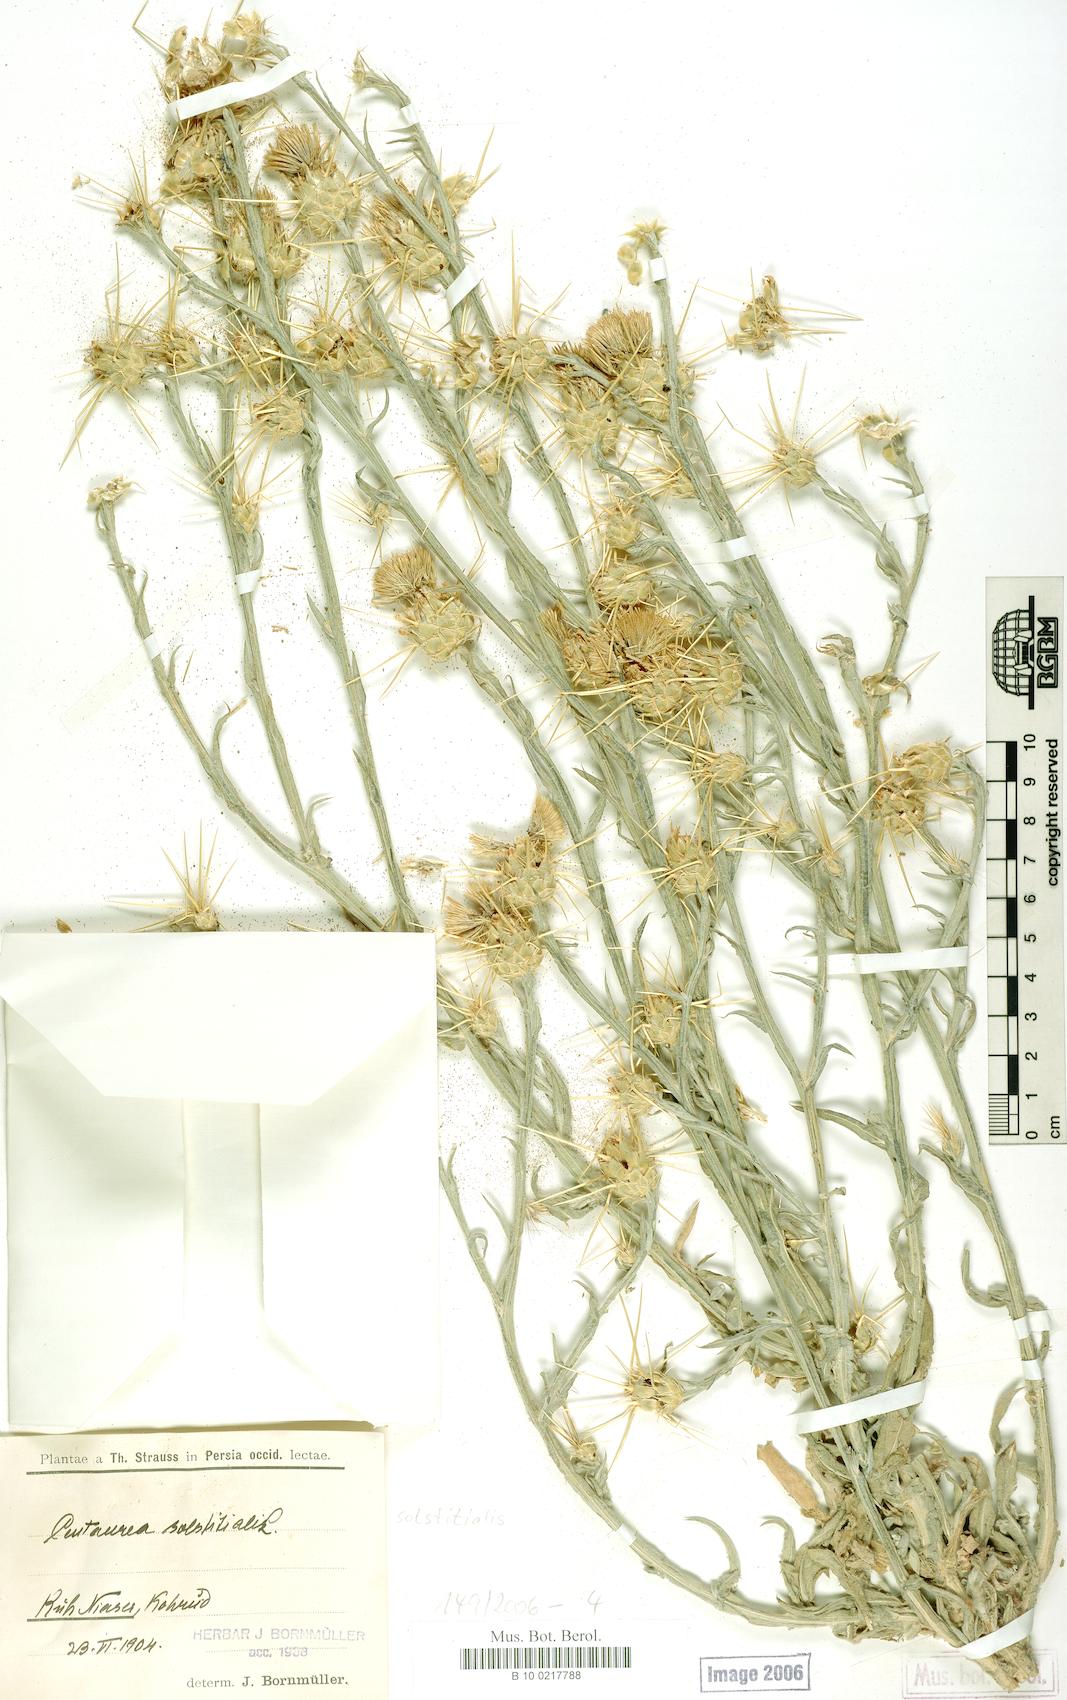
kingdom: Plantae
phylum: Tracheophyta
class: Magnoliopsida
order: Asterales
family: Asteraceae
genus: Centaurea
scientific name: Centaurea solstitialis
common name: Yellow star-thistle
